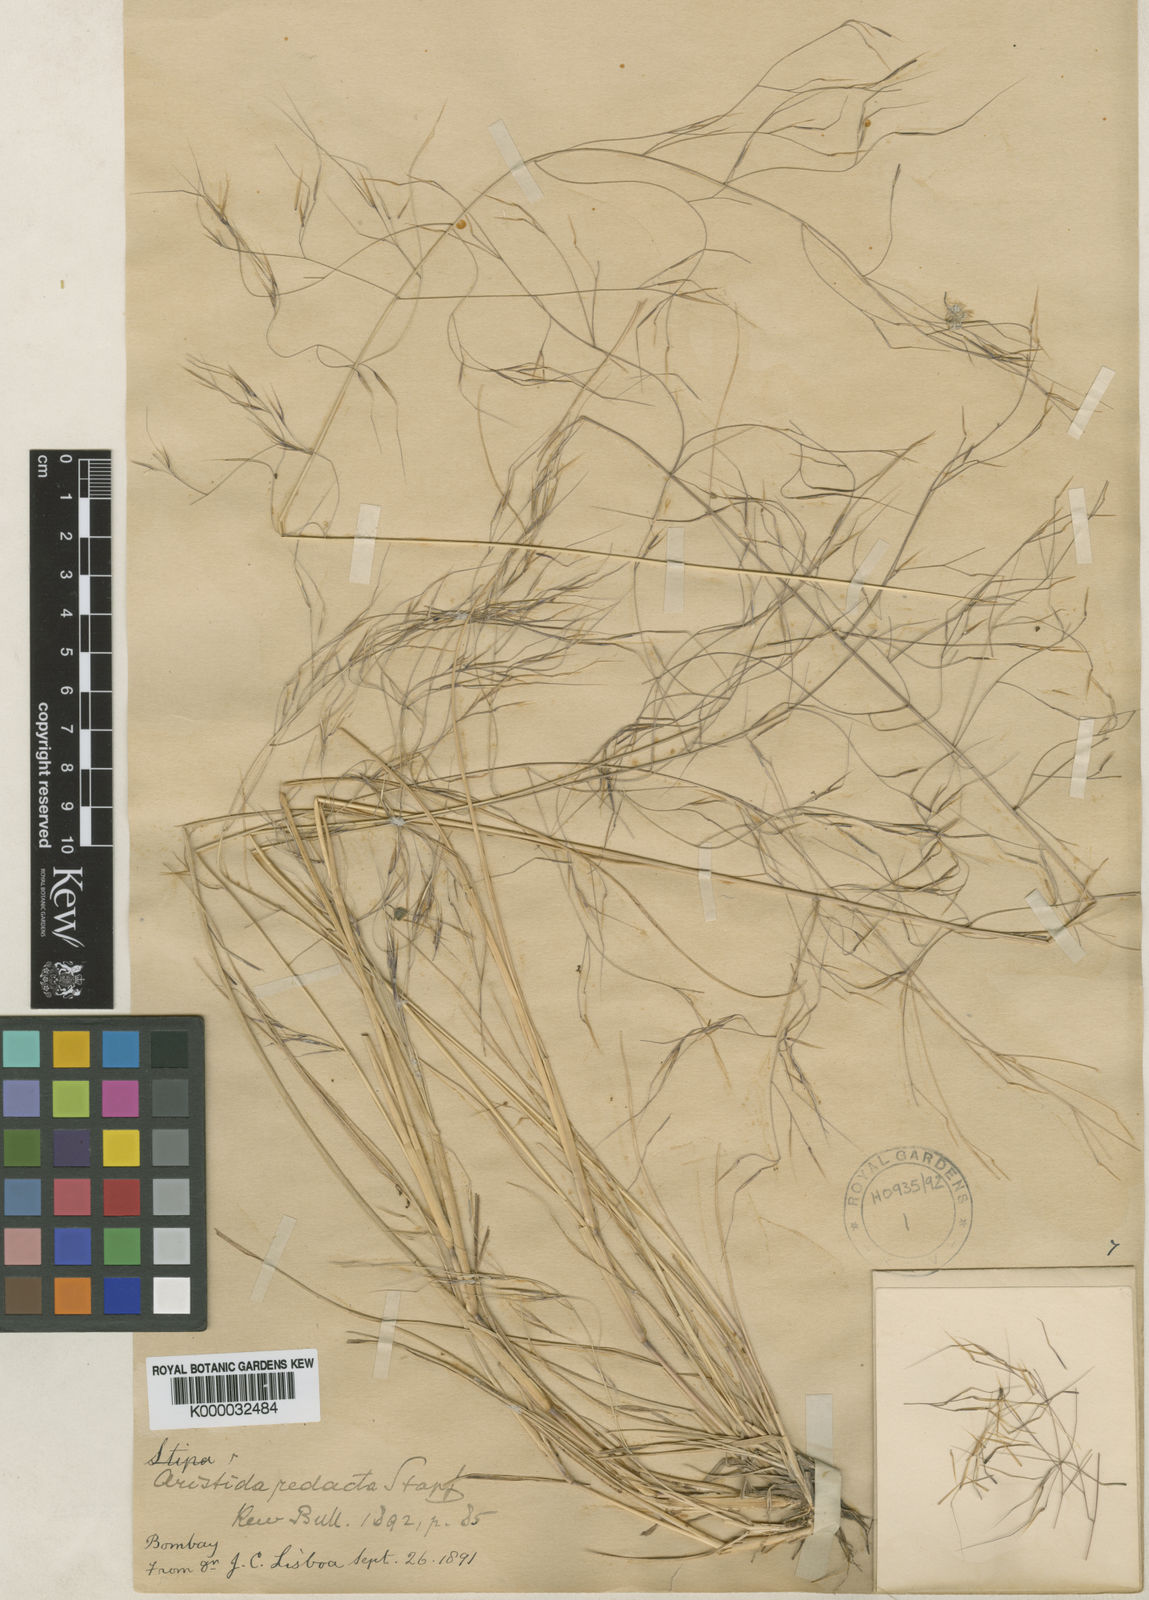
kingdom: Plantae
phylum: Tracheophyta
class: Liliopsida
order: Poales
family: Poaceae
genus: Aristida
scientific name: Aristida redacta
